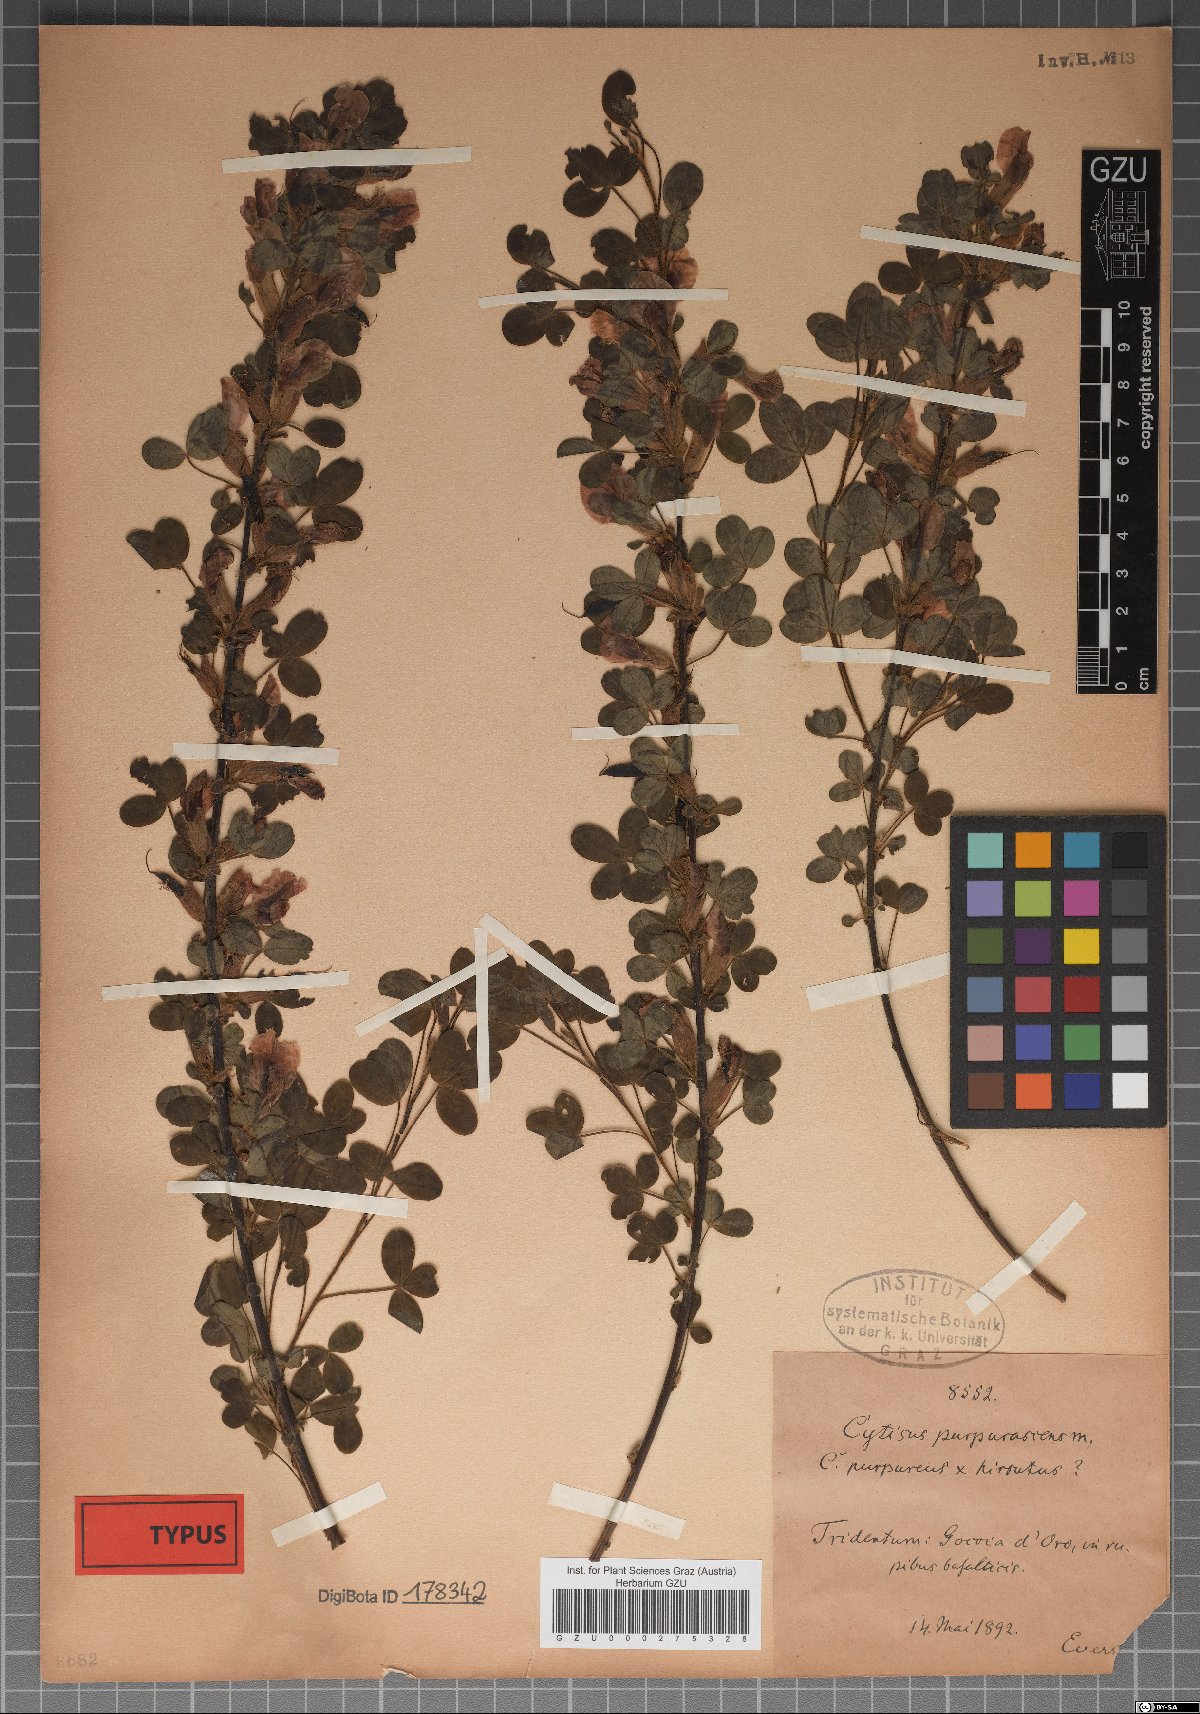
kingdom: Plantae
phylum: Tracheophyta
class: Magnoliopsida
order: Fabales
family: Fabaceae
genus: Chamaecytisus
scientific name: Chamaecytisus hirsutus
